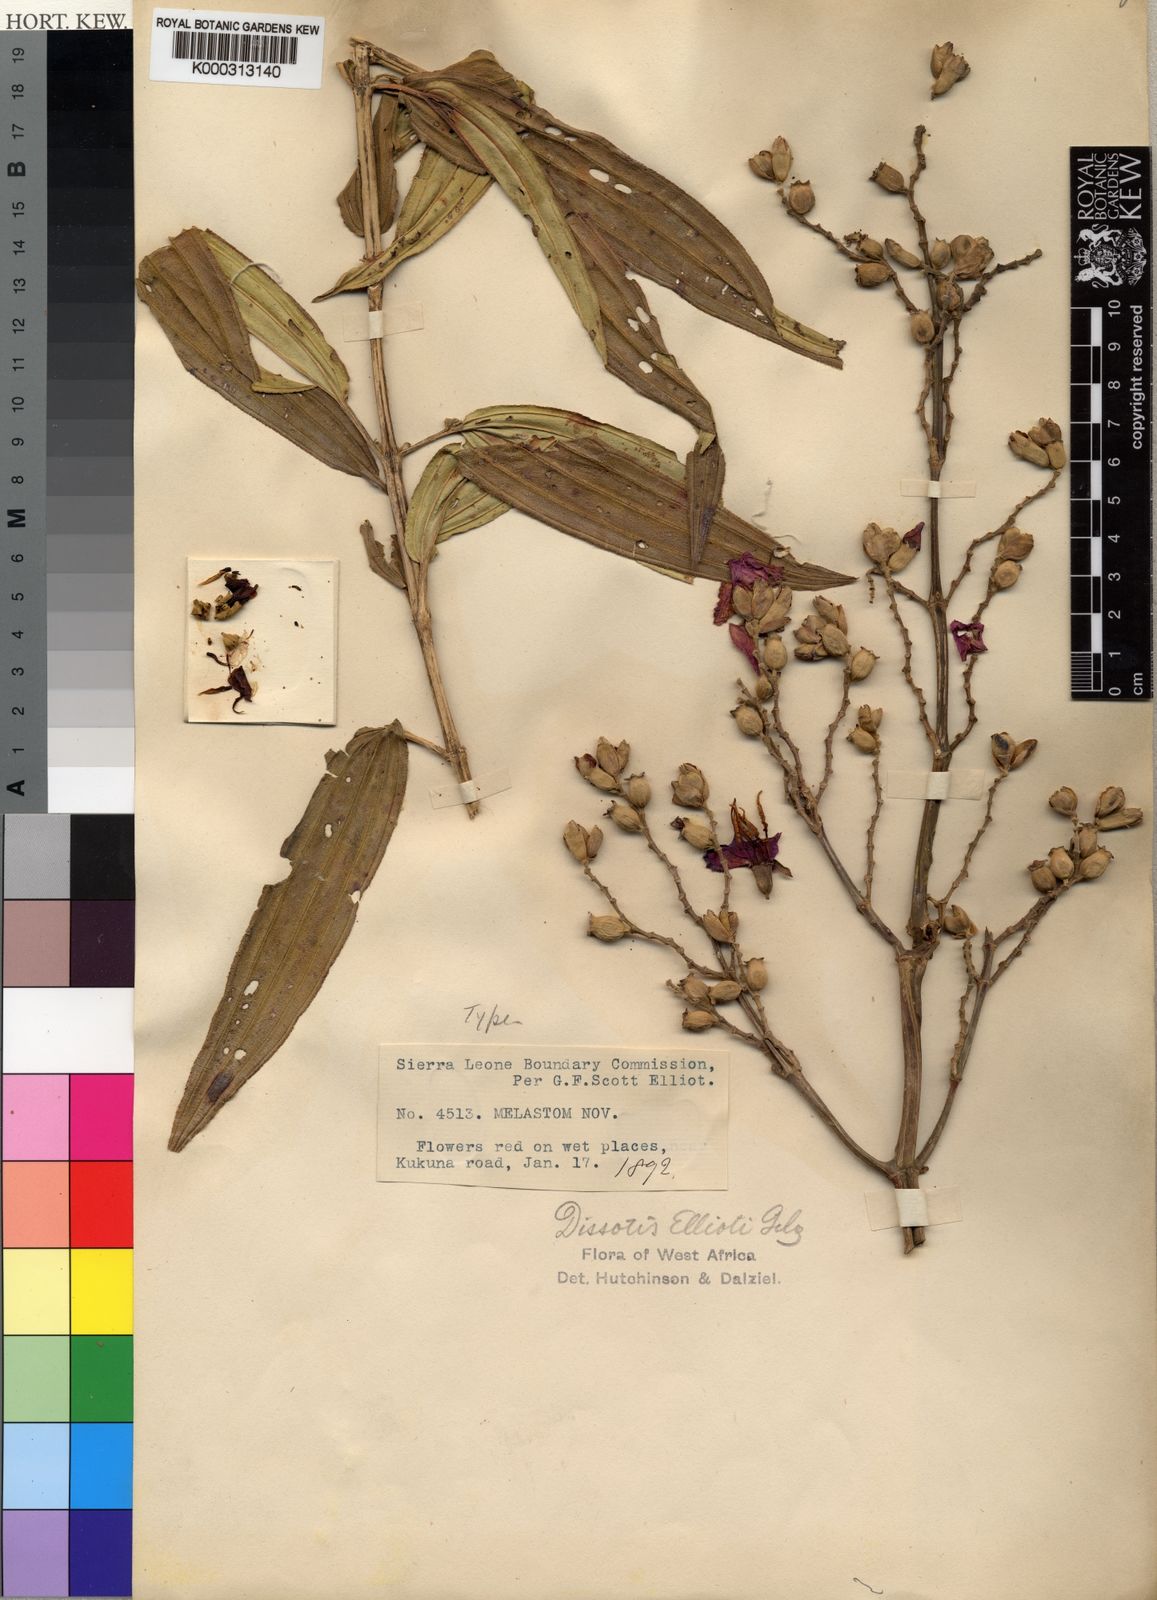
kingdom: Plantae
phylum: Tracheophyta
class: Magnoliopsida
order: Myrtales
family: Melastomataceae
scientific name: Melastomataceae
